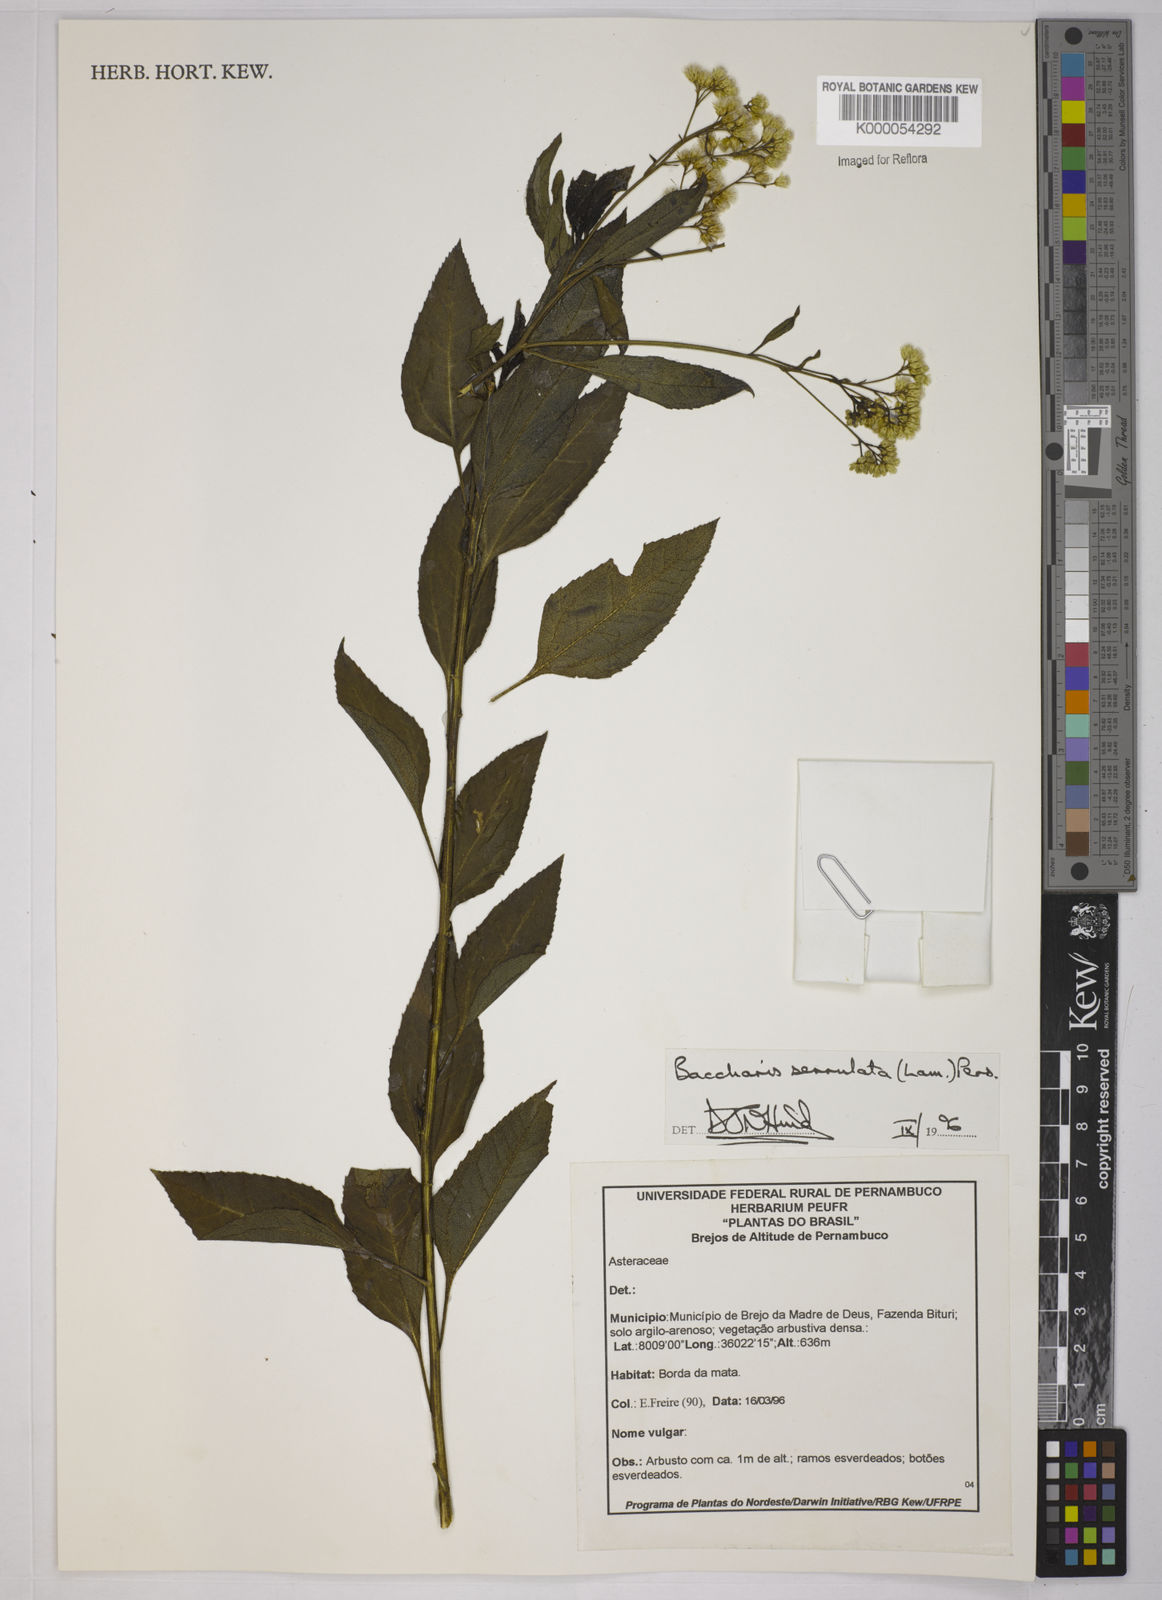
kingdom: Plantae
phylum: Tracheophyta
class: Magnoliopsida
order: Asterales
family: Asteraceae
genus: Baccharis
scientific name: Baccharis serrulata
